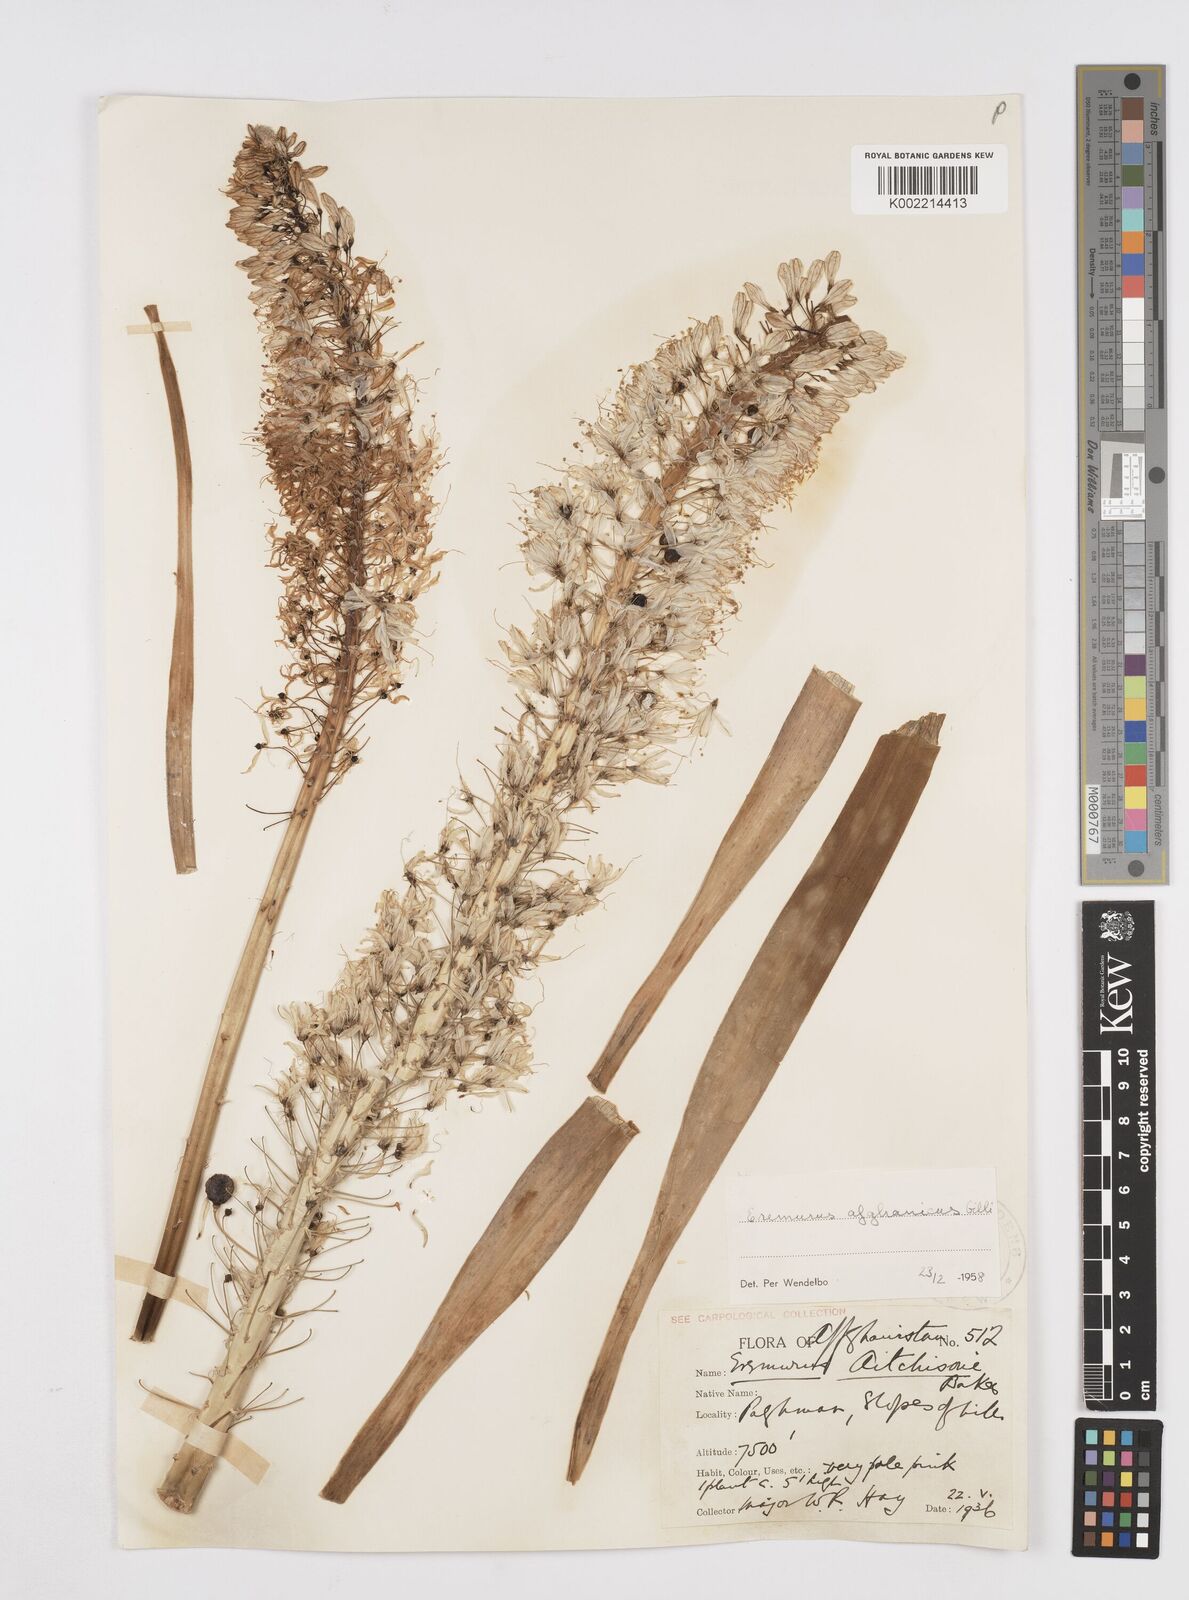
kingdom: Plantae
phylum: Tracheophyta
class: Liliopsida
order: Asparagales
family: Asphodelaceae
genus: Eremurus
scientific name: Eremurus afghanicus
